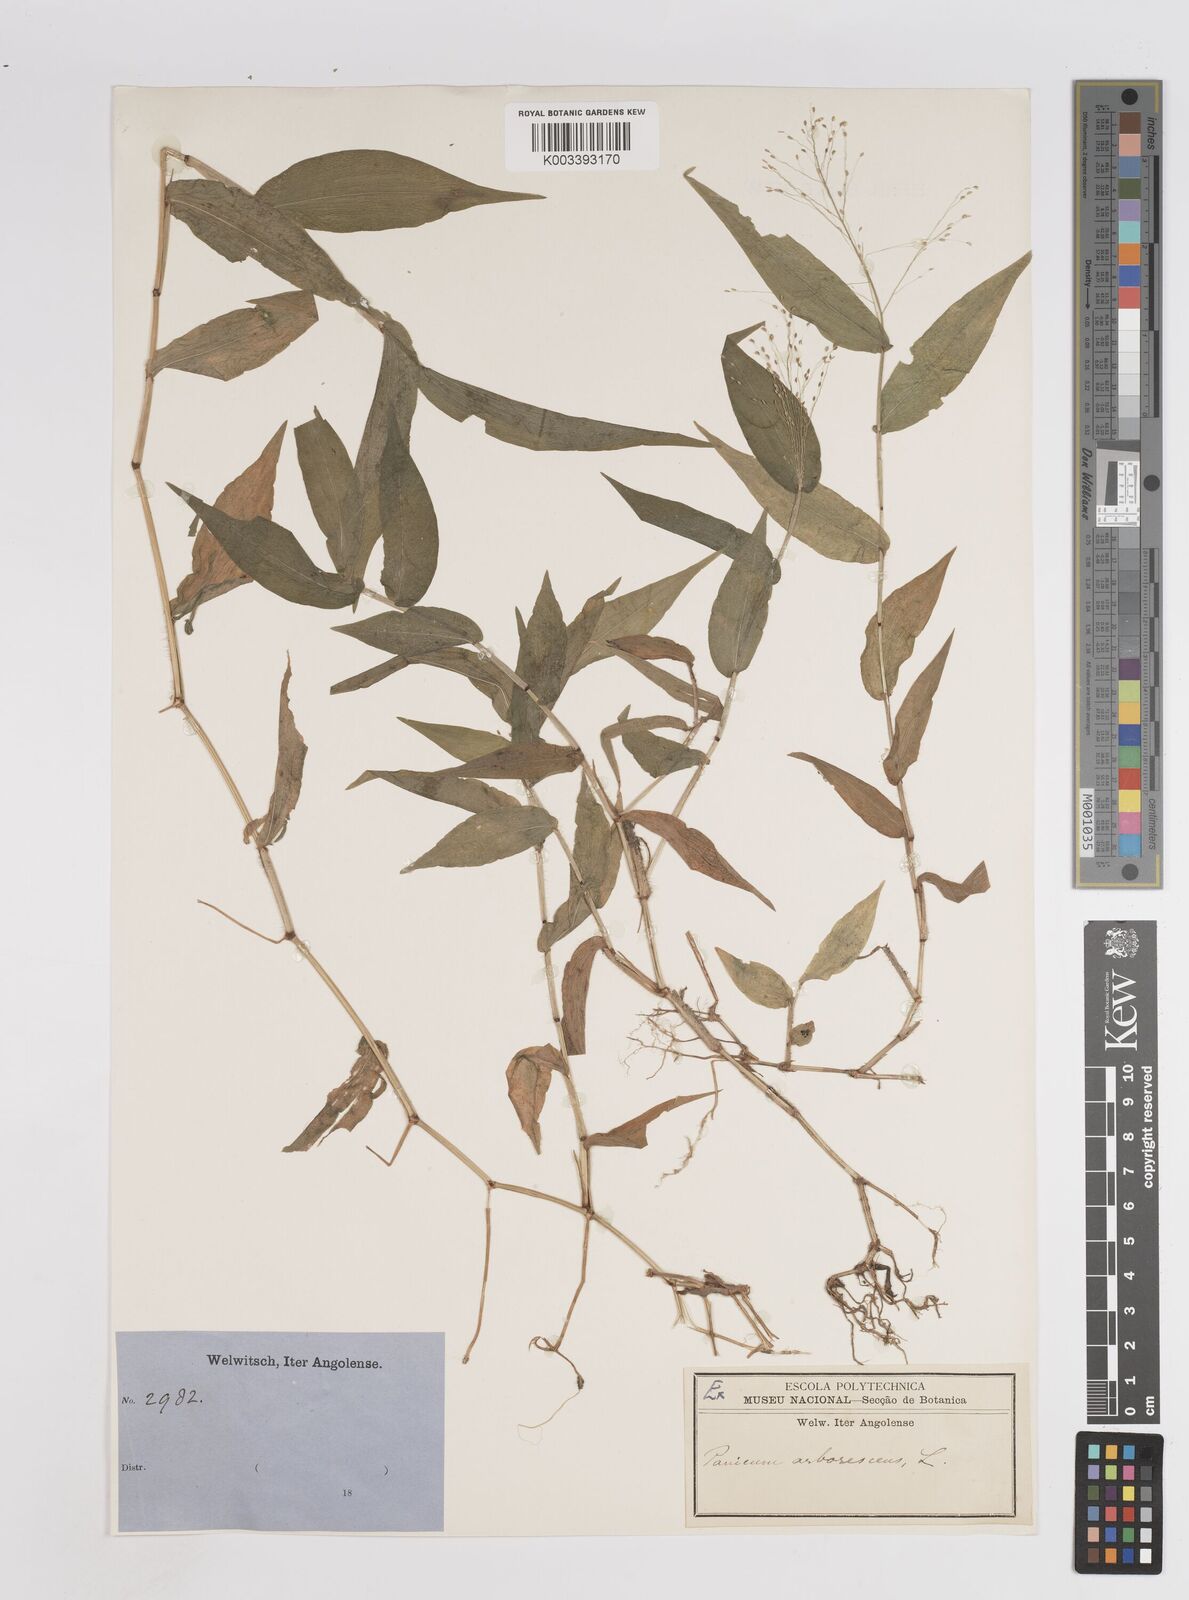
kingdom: Plantae
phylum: Tracheophyta
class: Liliopsida
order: Poales
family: Poaceae
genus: Panicum
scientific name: Panicum brevifolium
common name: Shortleaf panic grass
